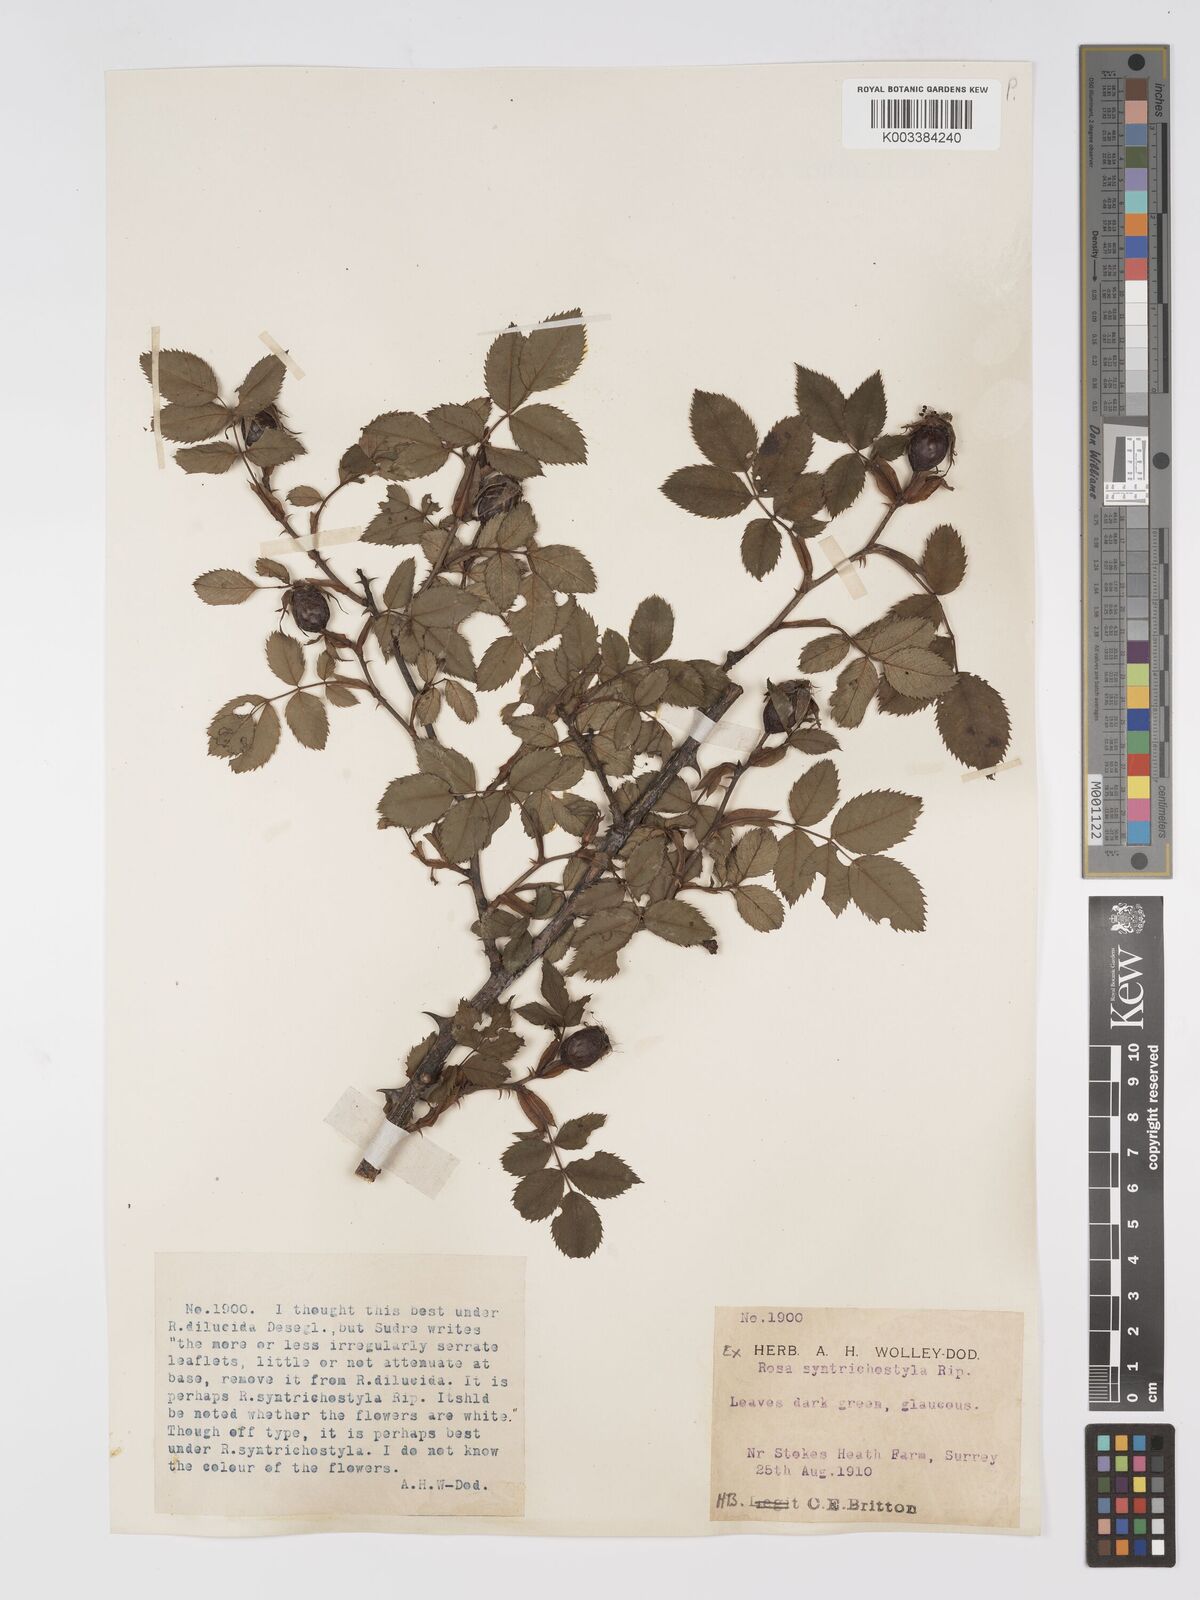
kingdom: Plantae
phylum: Tracheophyta
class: Magnoliopsida
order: Rosales
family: Rosaceae
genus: Rosa
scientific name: Rosa canina
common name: Dog rose
